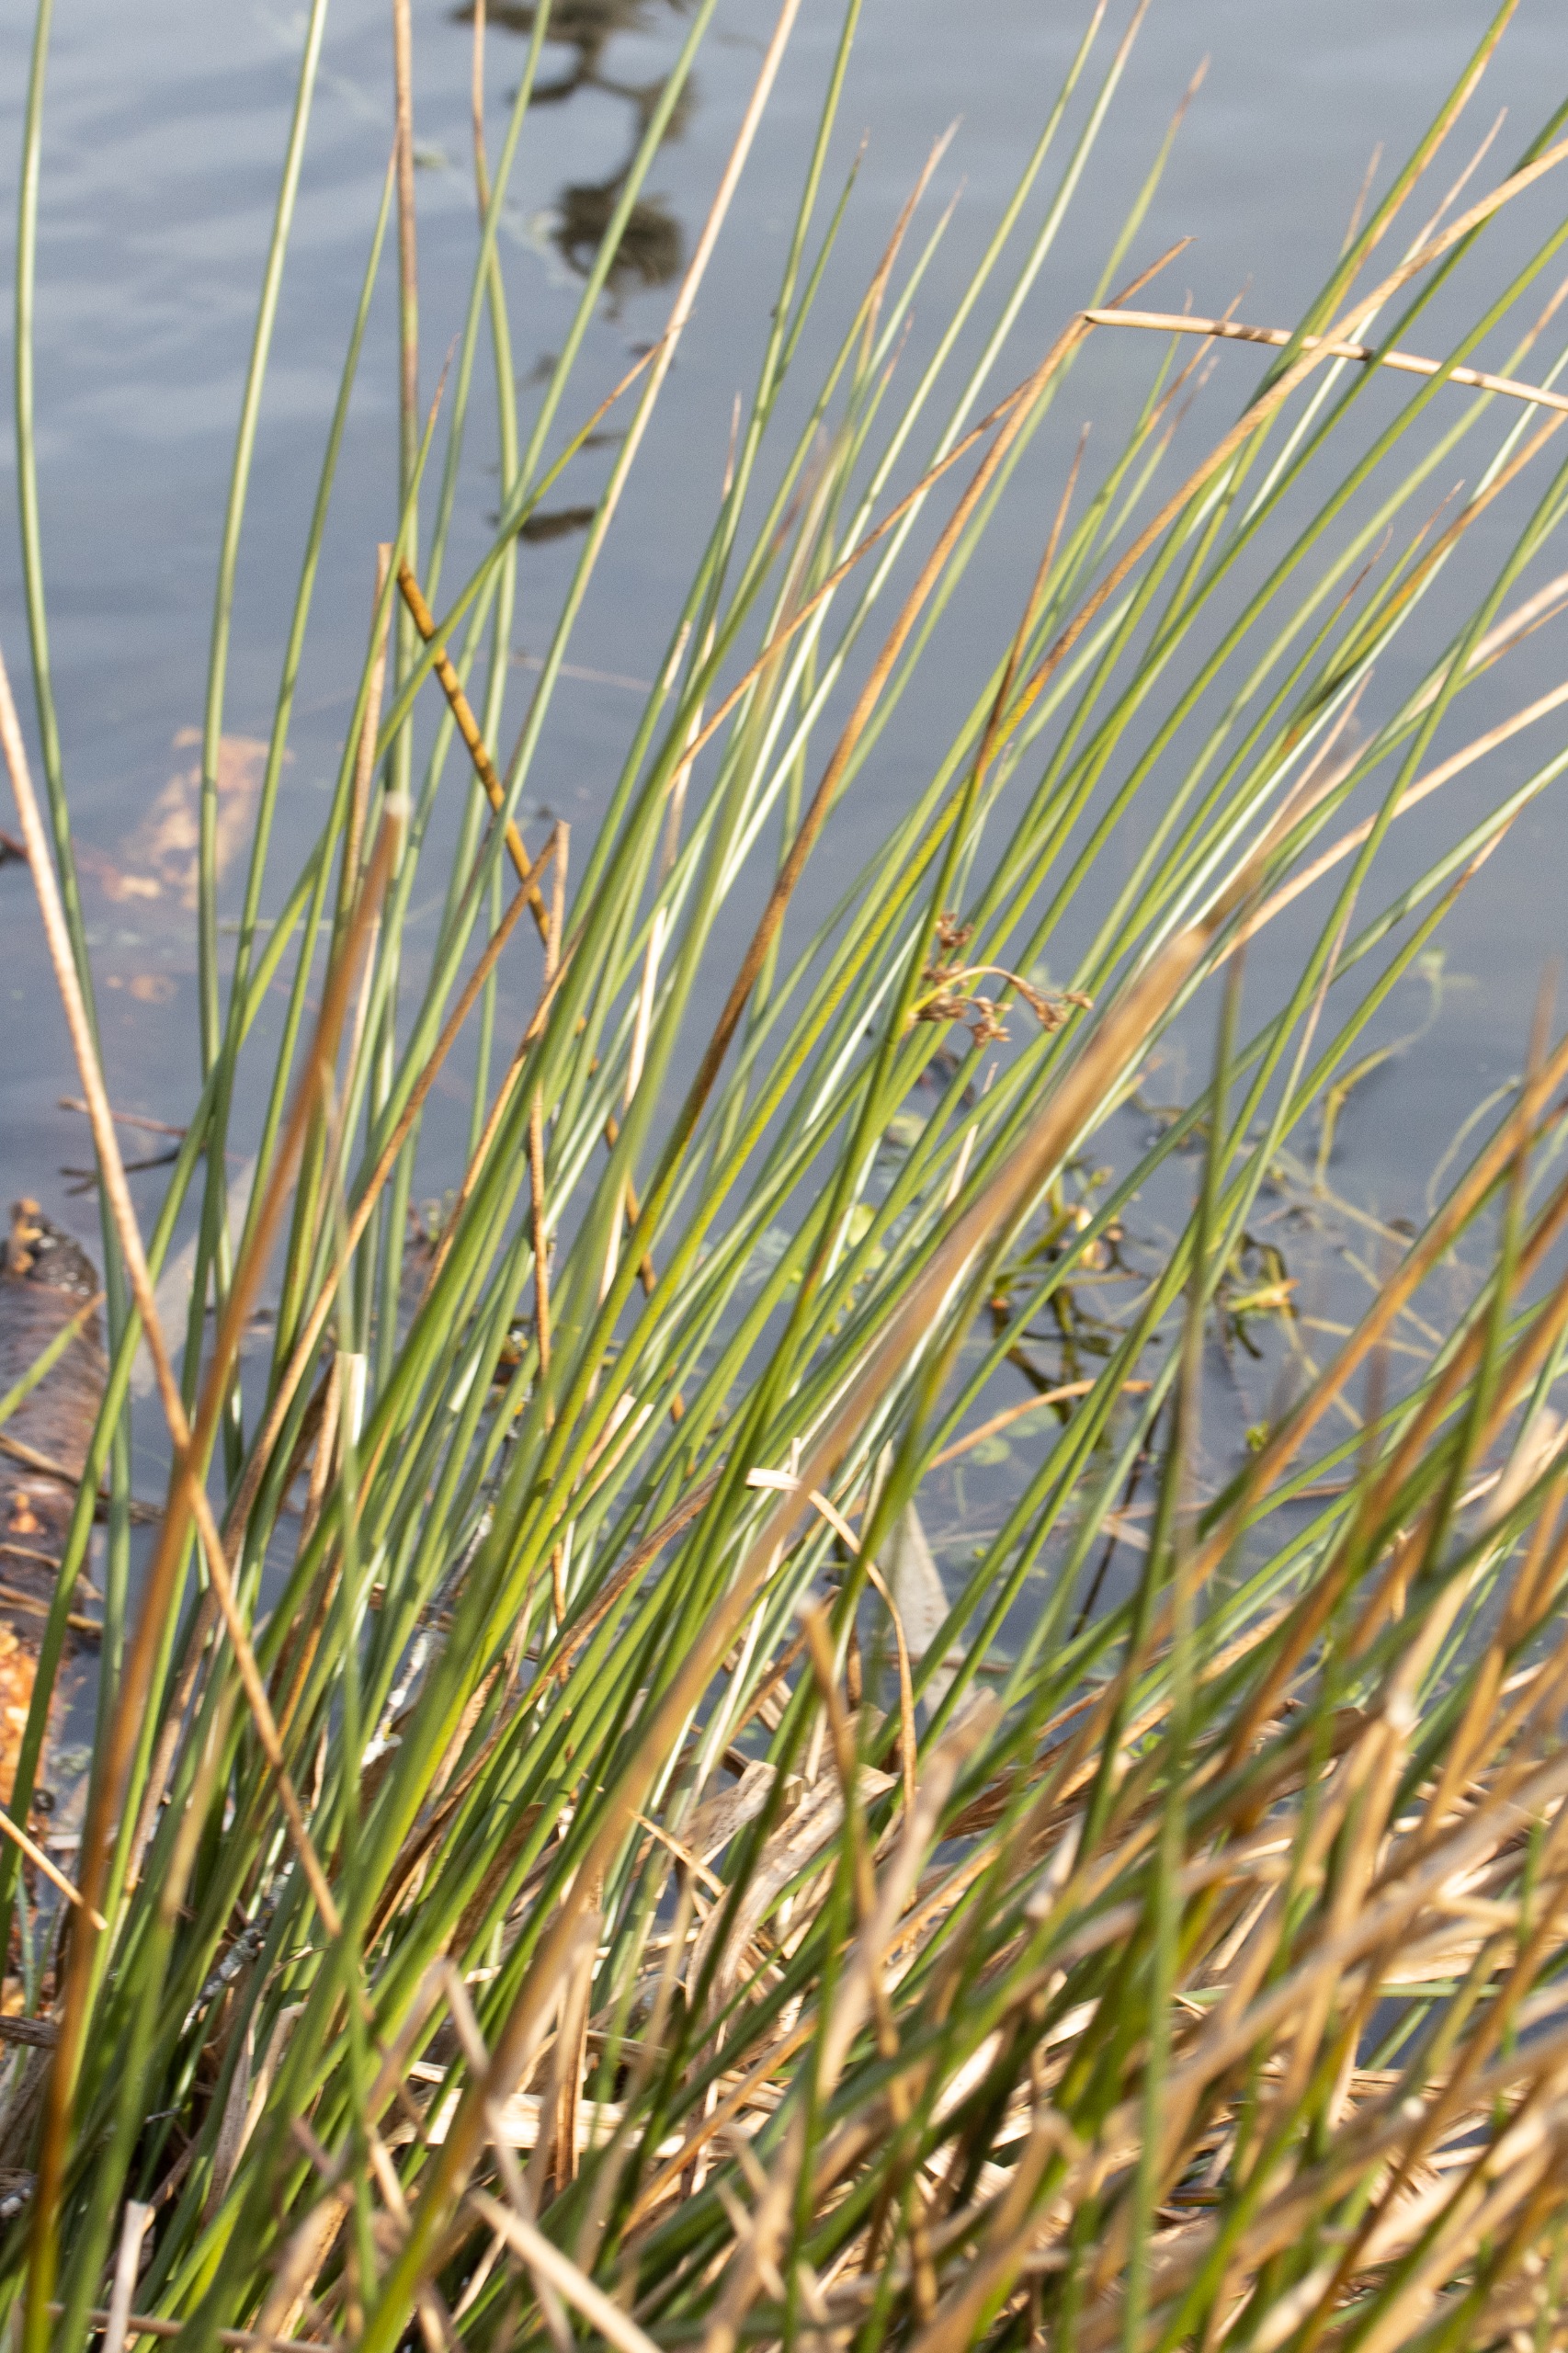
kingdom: Plantae
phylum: Tracheophyta
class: Liliopsida
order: Poales
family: Juncaceae
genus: Juncus
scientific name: Juncus effusus
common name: Lyse-siv
